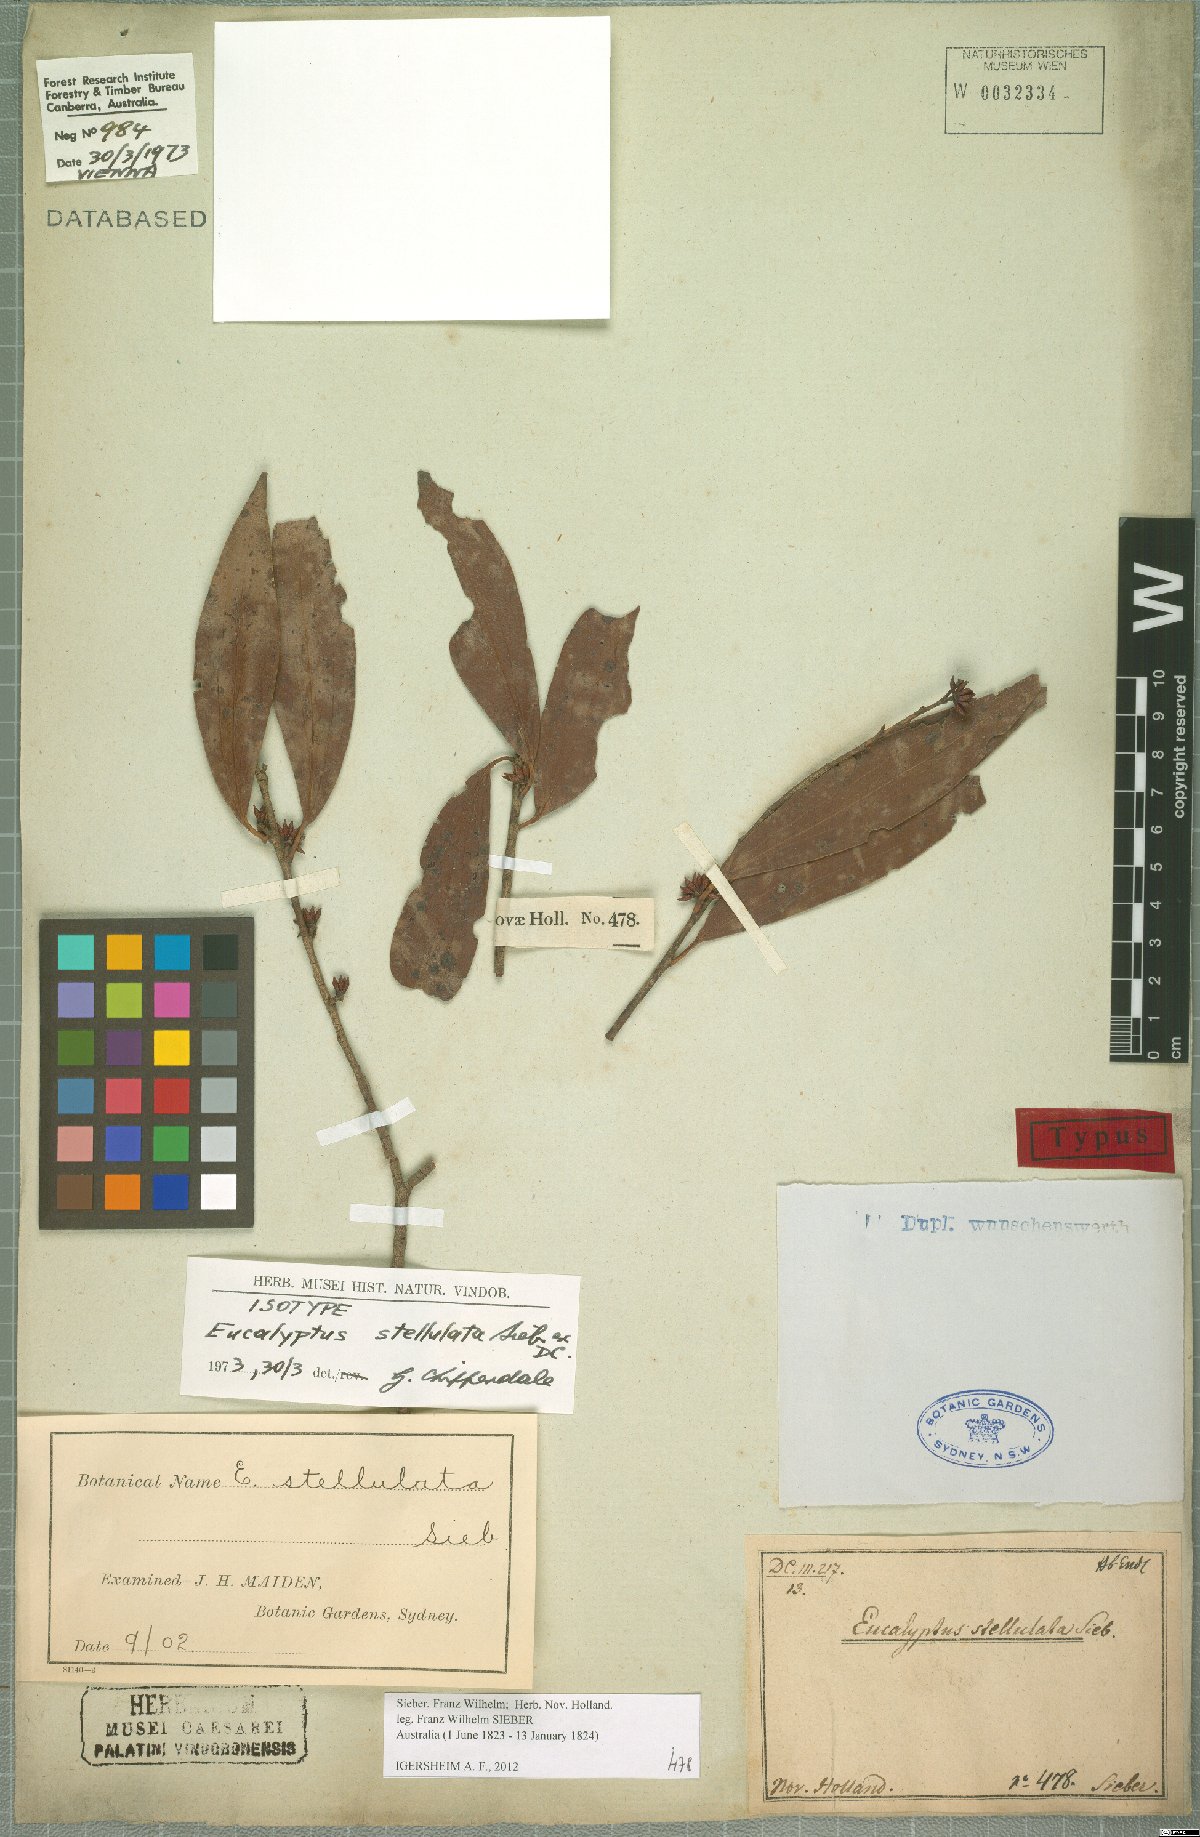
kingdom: Plantae
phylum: Tracheophyta
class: Magnoliopsida
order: Myrtales
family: Myrtaceae
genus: Eucalyptus
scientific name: Eucalyptus stellulata
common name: Black sallee
